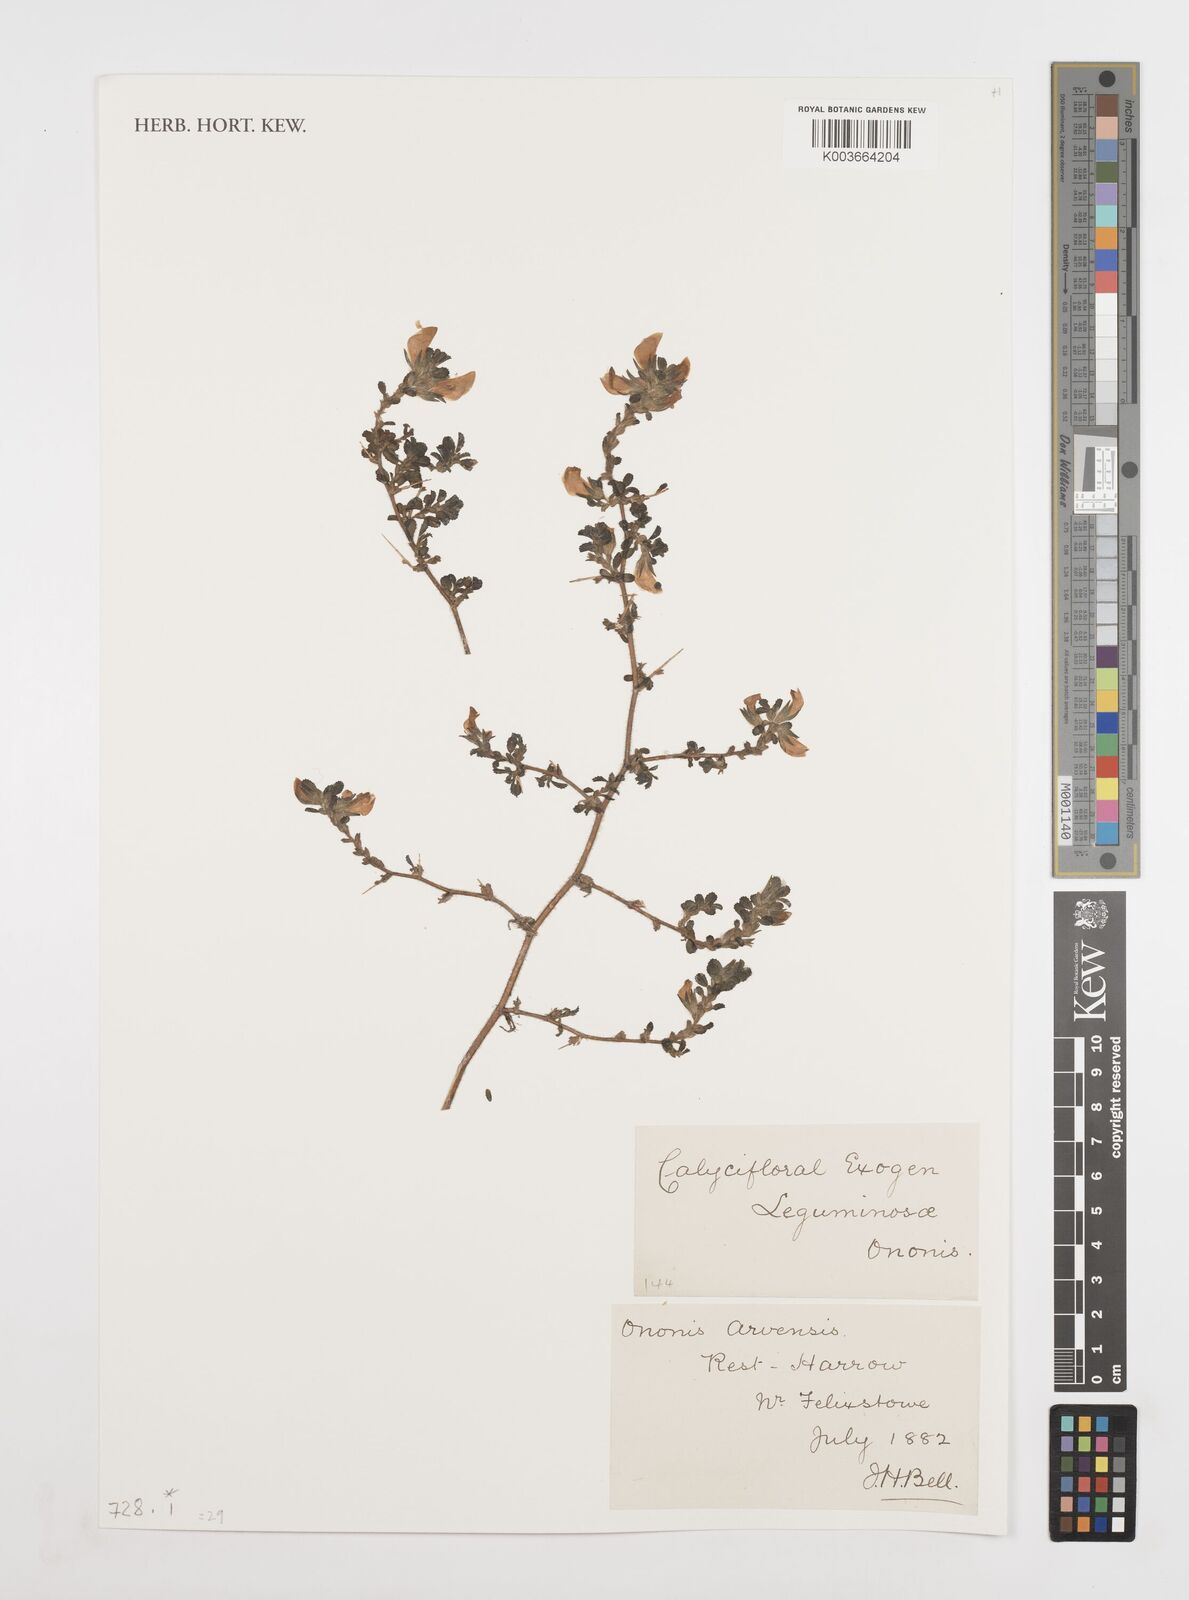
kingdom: Plantae
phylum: Tracheophyta
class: Magnoliopsida
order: Fabales
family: Fabaceae
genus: Ononis
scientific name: Ononis spinosa
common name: Spiny restharrow
